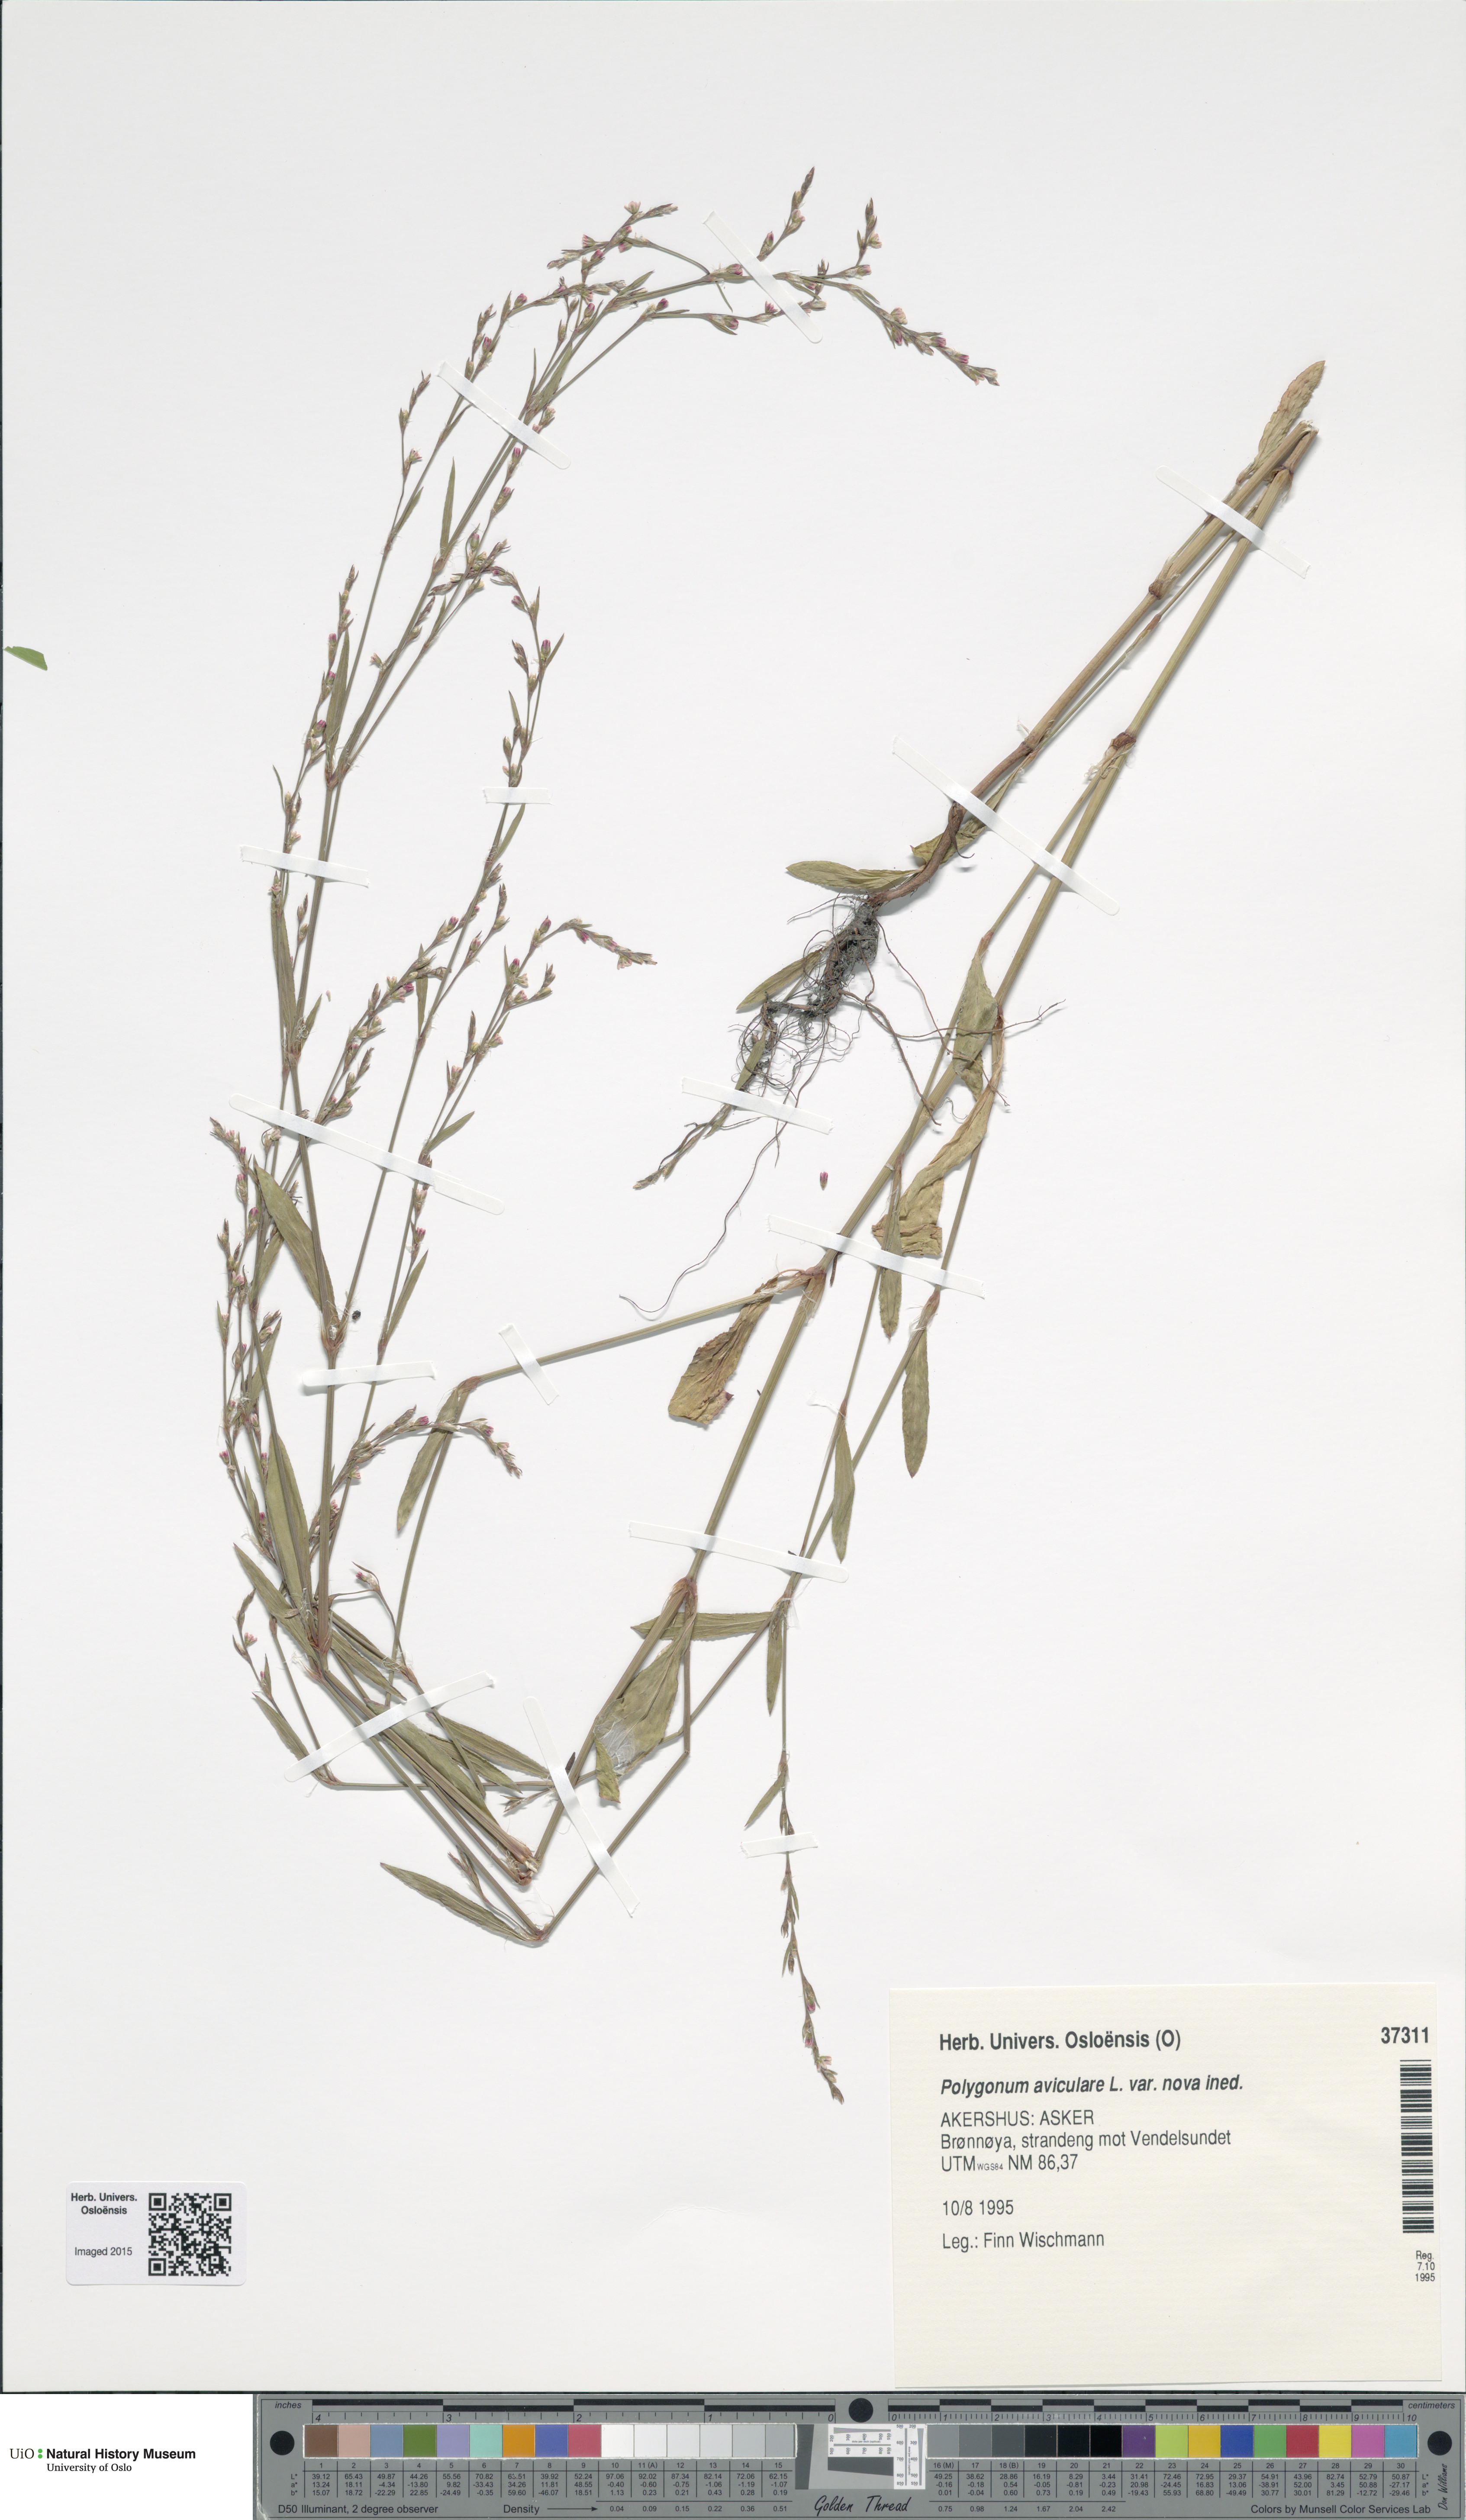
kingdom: Plantae
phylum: Tracheophyta
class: Magnoliopsida
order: Caryophyllales
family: Polygonaceae
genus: Polygonum
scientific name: Polygonum excelsius
